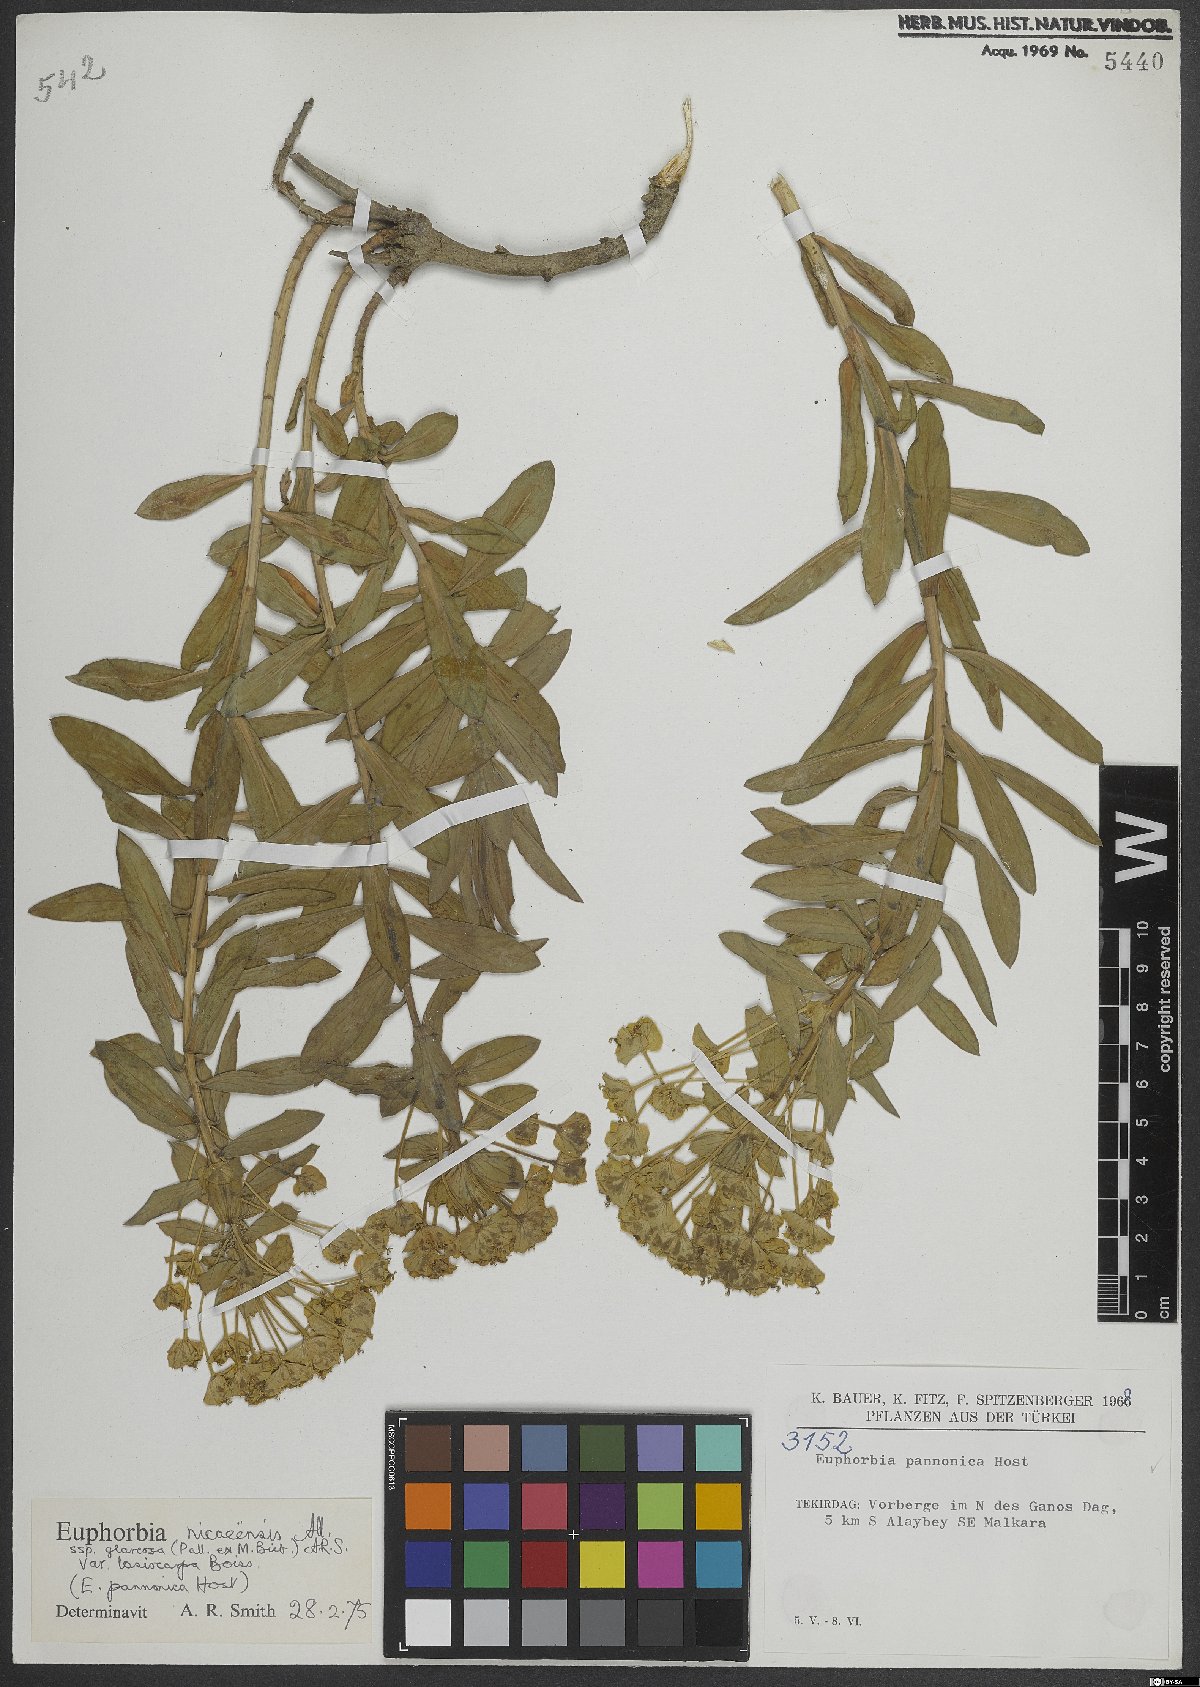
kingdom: Plantae
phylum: Tracheophyta
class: Magnoliopsida
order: Malpighiales
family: Euphorbiaceae
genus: Euphorbia
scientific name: Euphorbia nicaeensis
